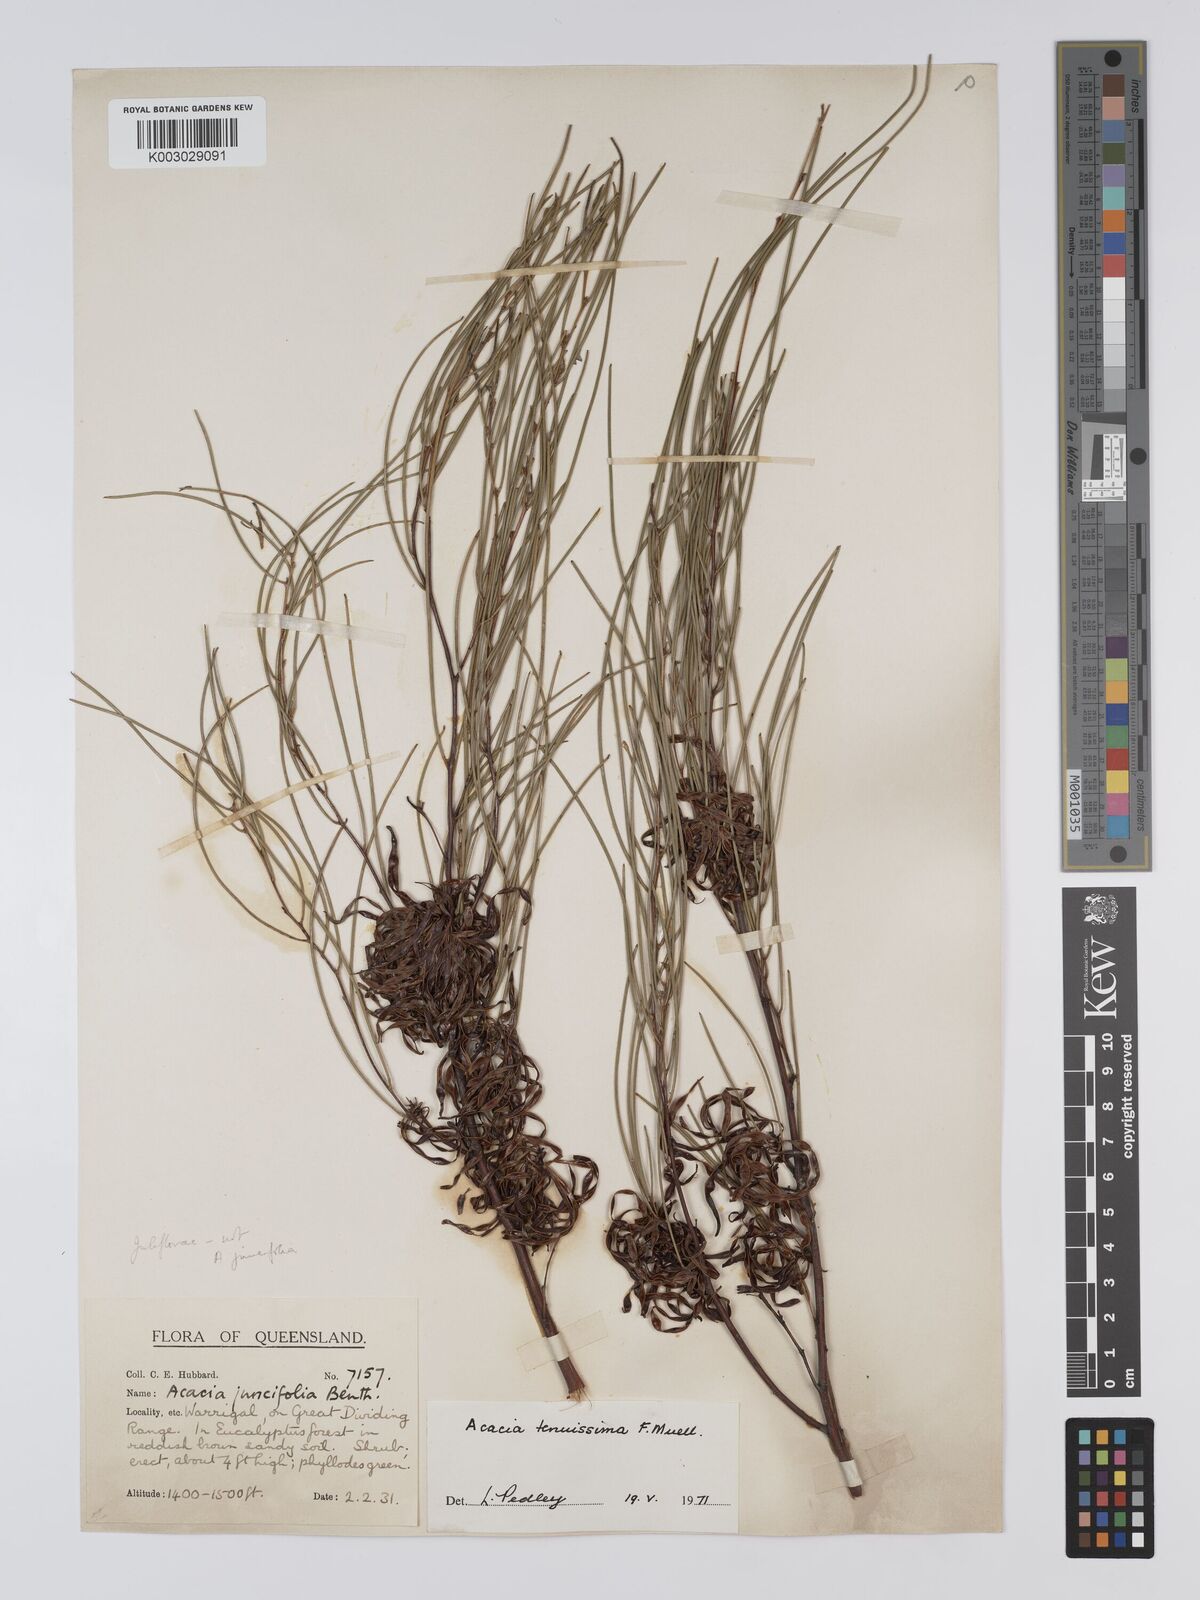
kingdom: Plantae
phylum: Tracheophyta
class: Magnoliopsida
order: Fabales
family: Fabaceae
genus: Acacia
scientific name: Acacia tenuissima
